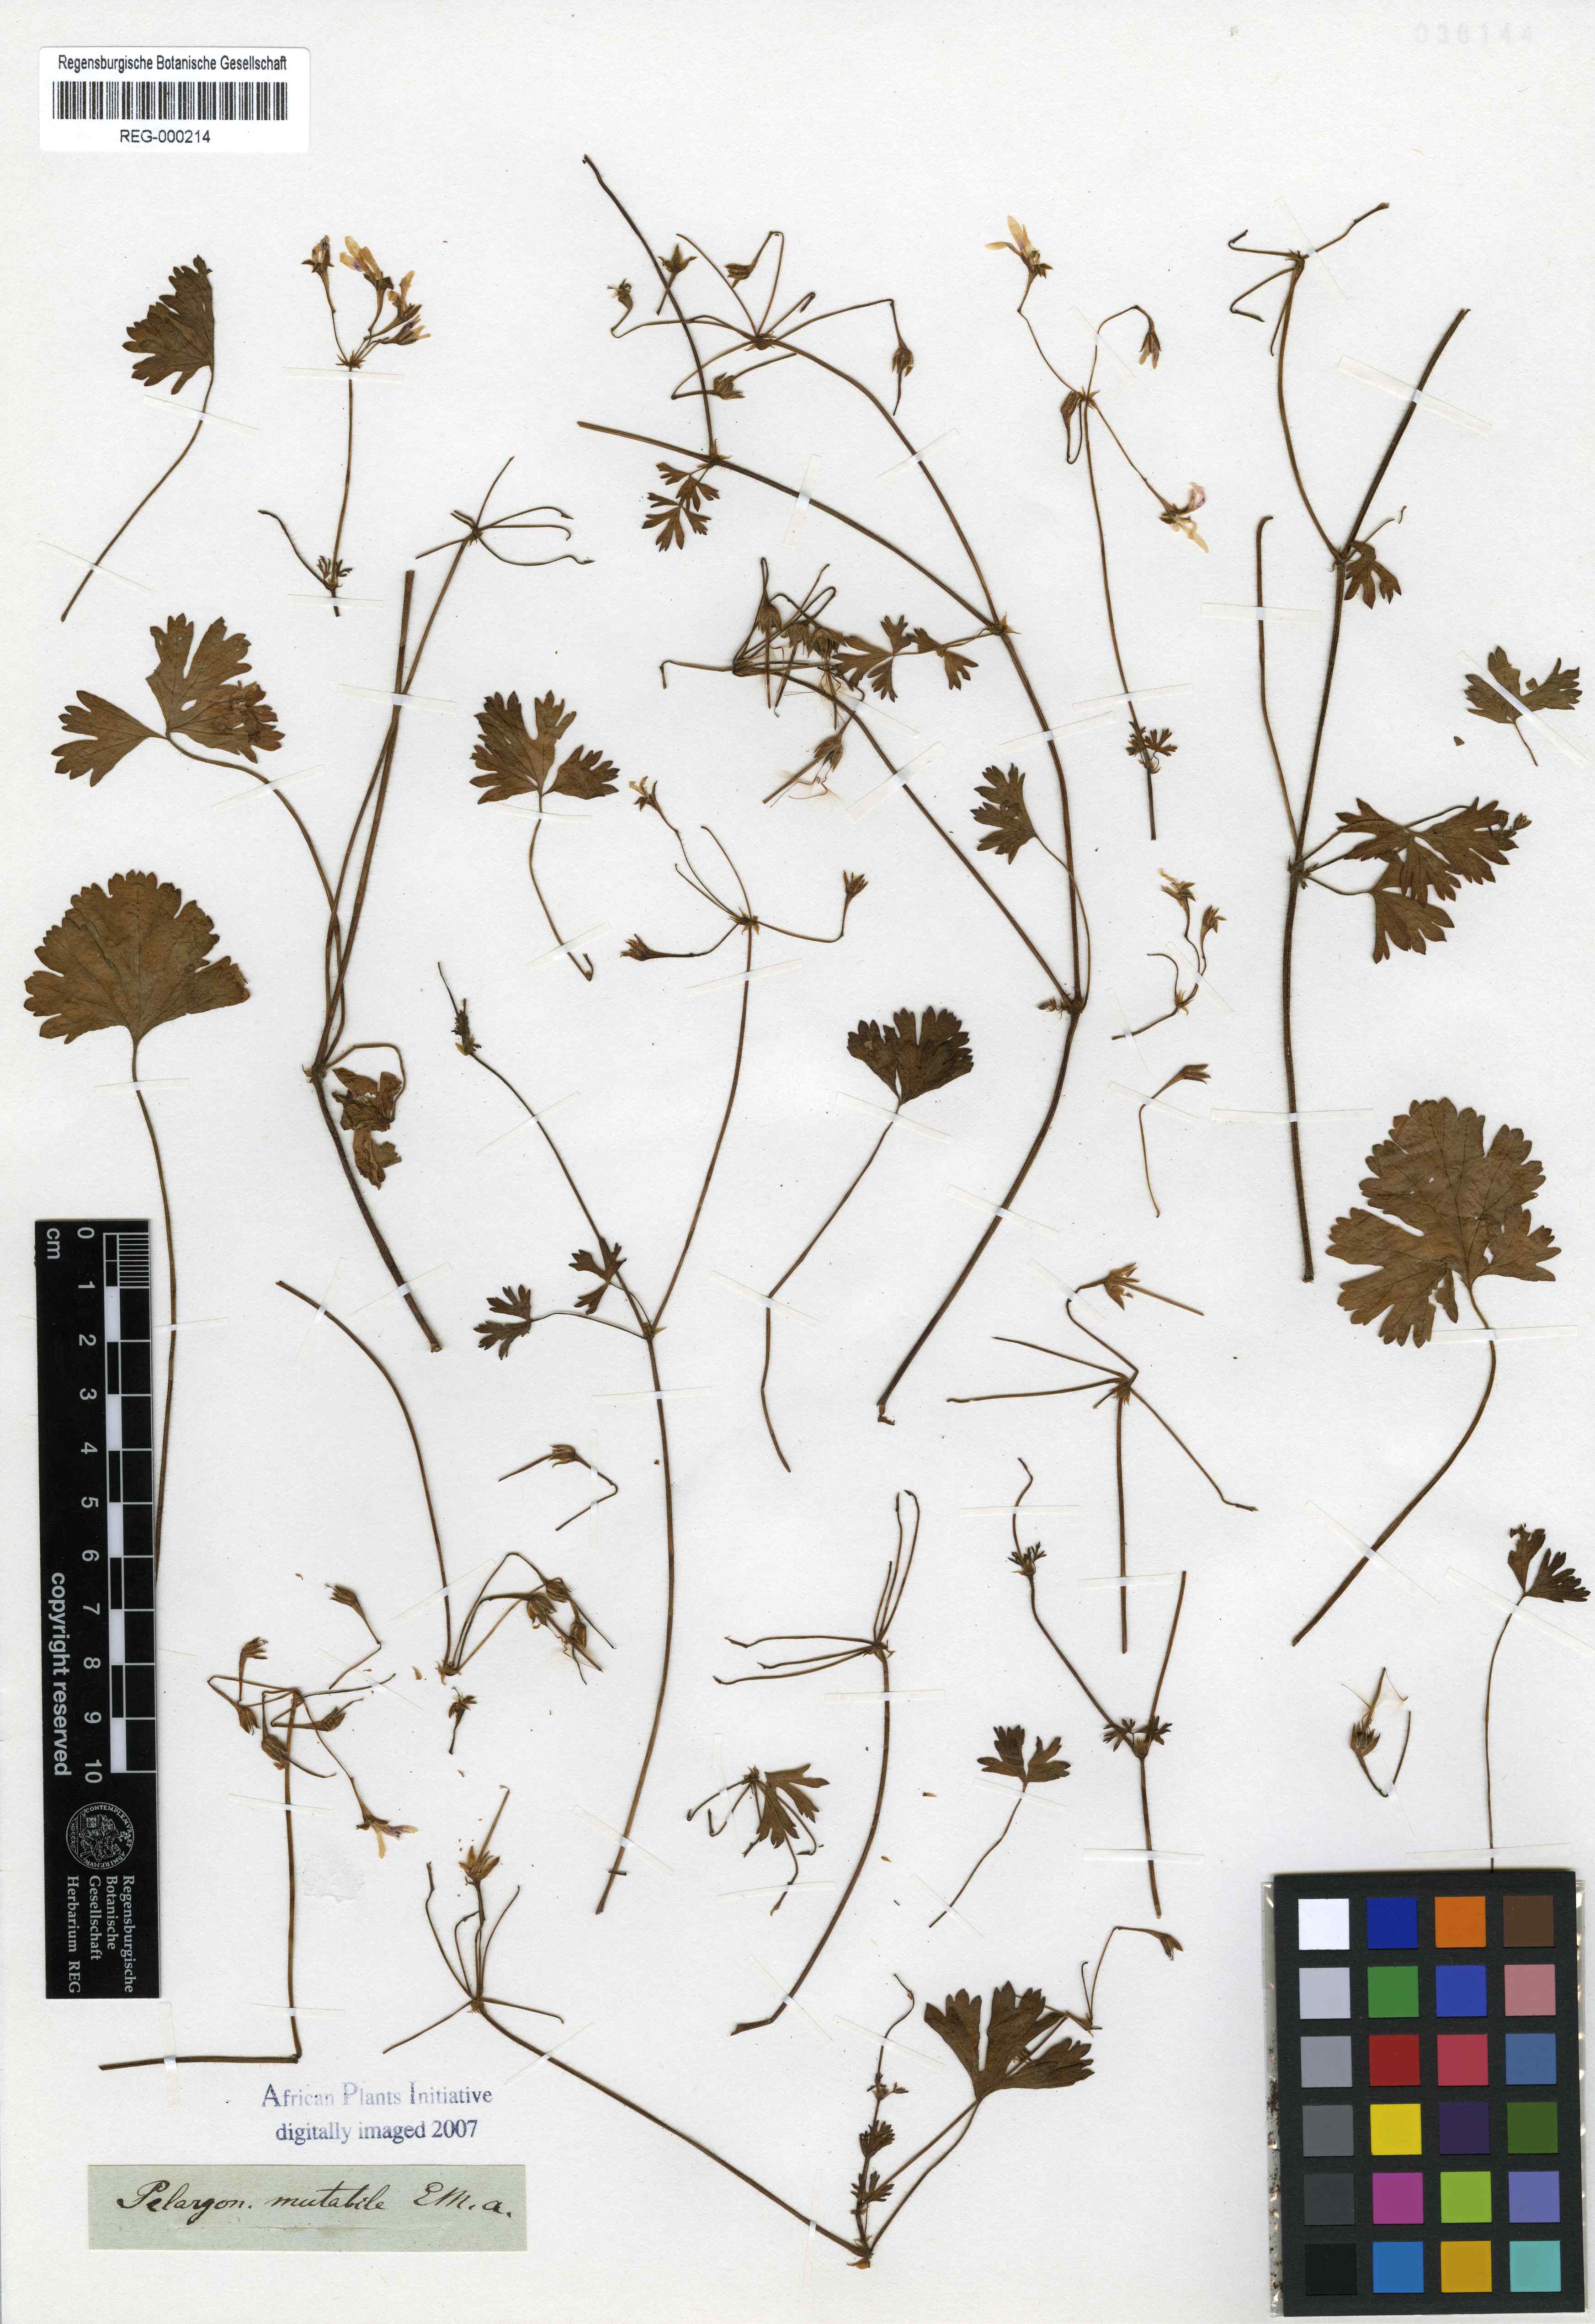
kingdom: Plantae
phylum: Tracheophyta
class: Magnoliopsida
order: Geraniales
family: Geraniaceae
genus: Pelargonium
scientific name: Pelargonium mutabile
